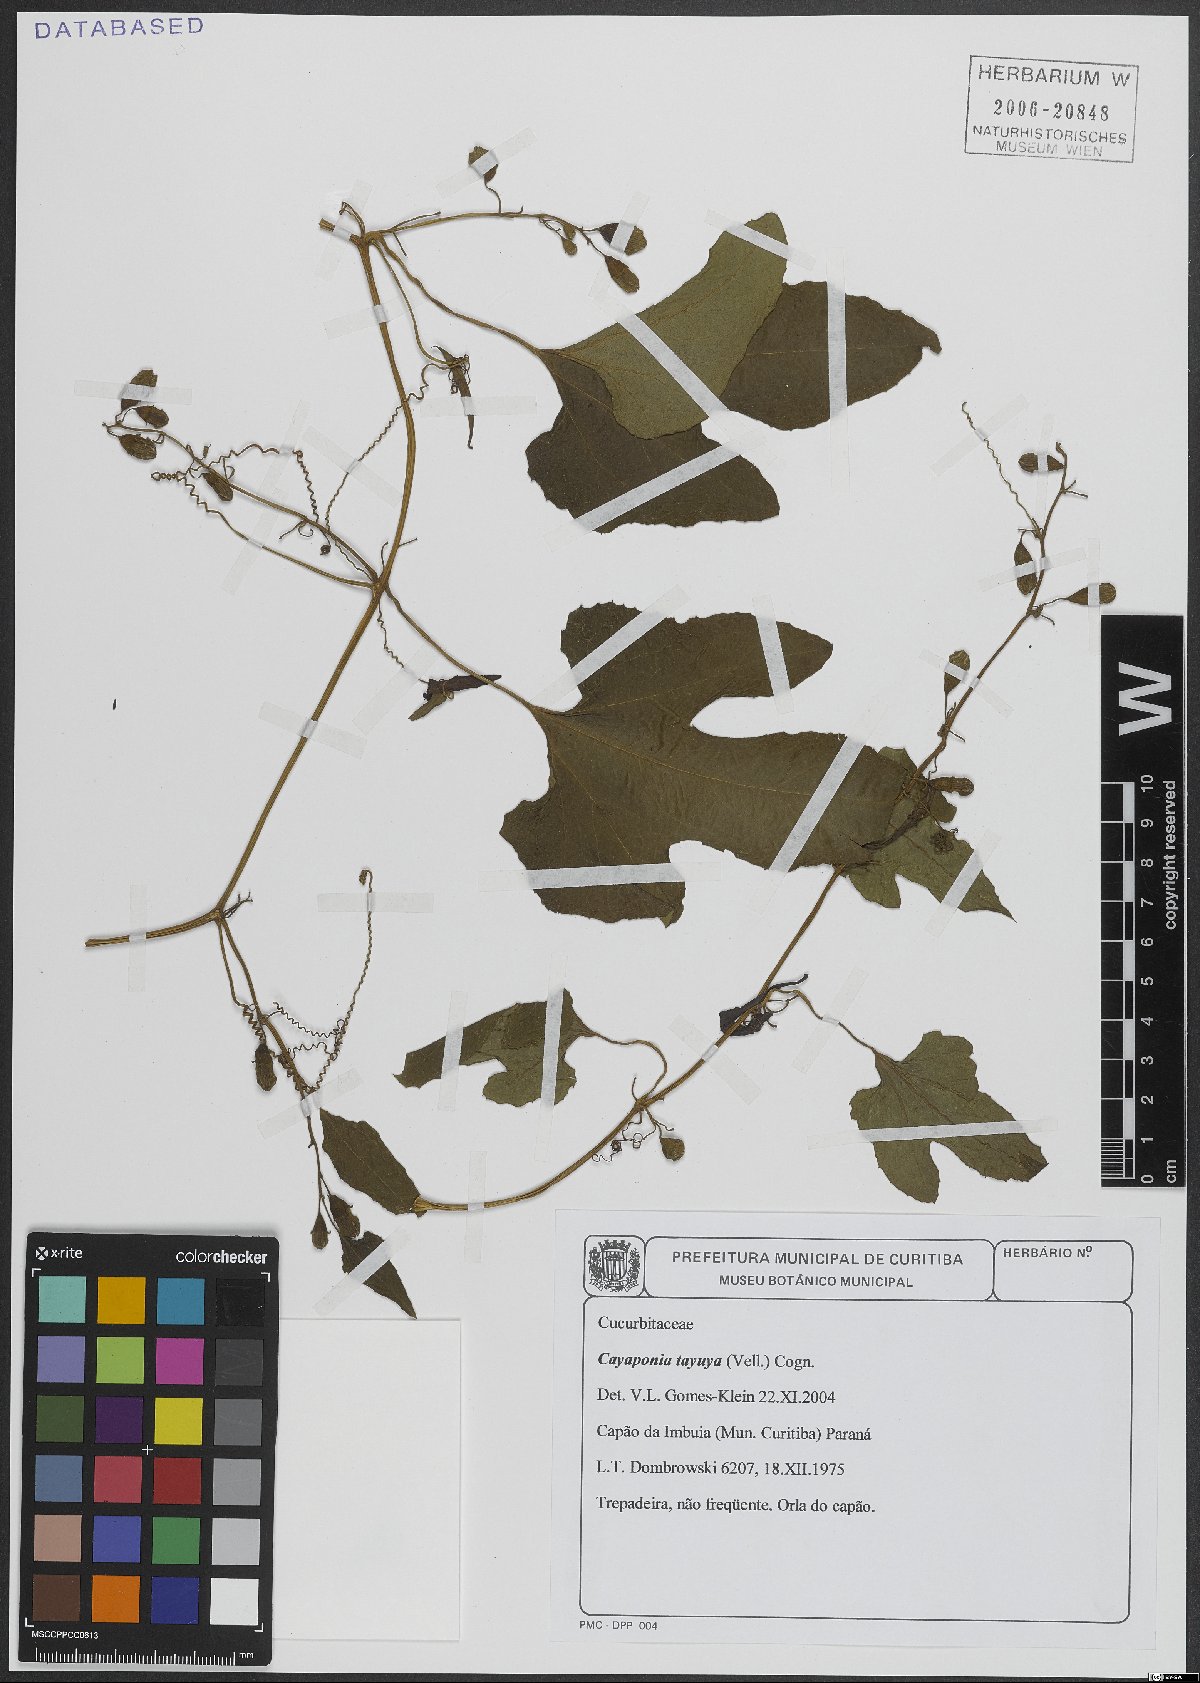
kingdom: Plantae
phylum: Tracheophyta
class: Magnoliopsida
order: Cucurbitales
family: Cucurbitaceae
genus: Cayaponia
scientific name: Cayaponia tayuya
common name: Tayuya
